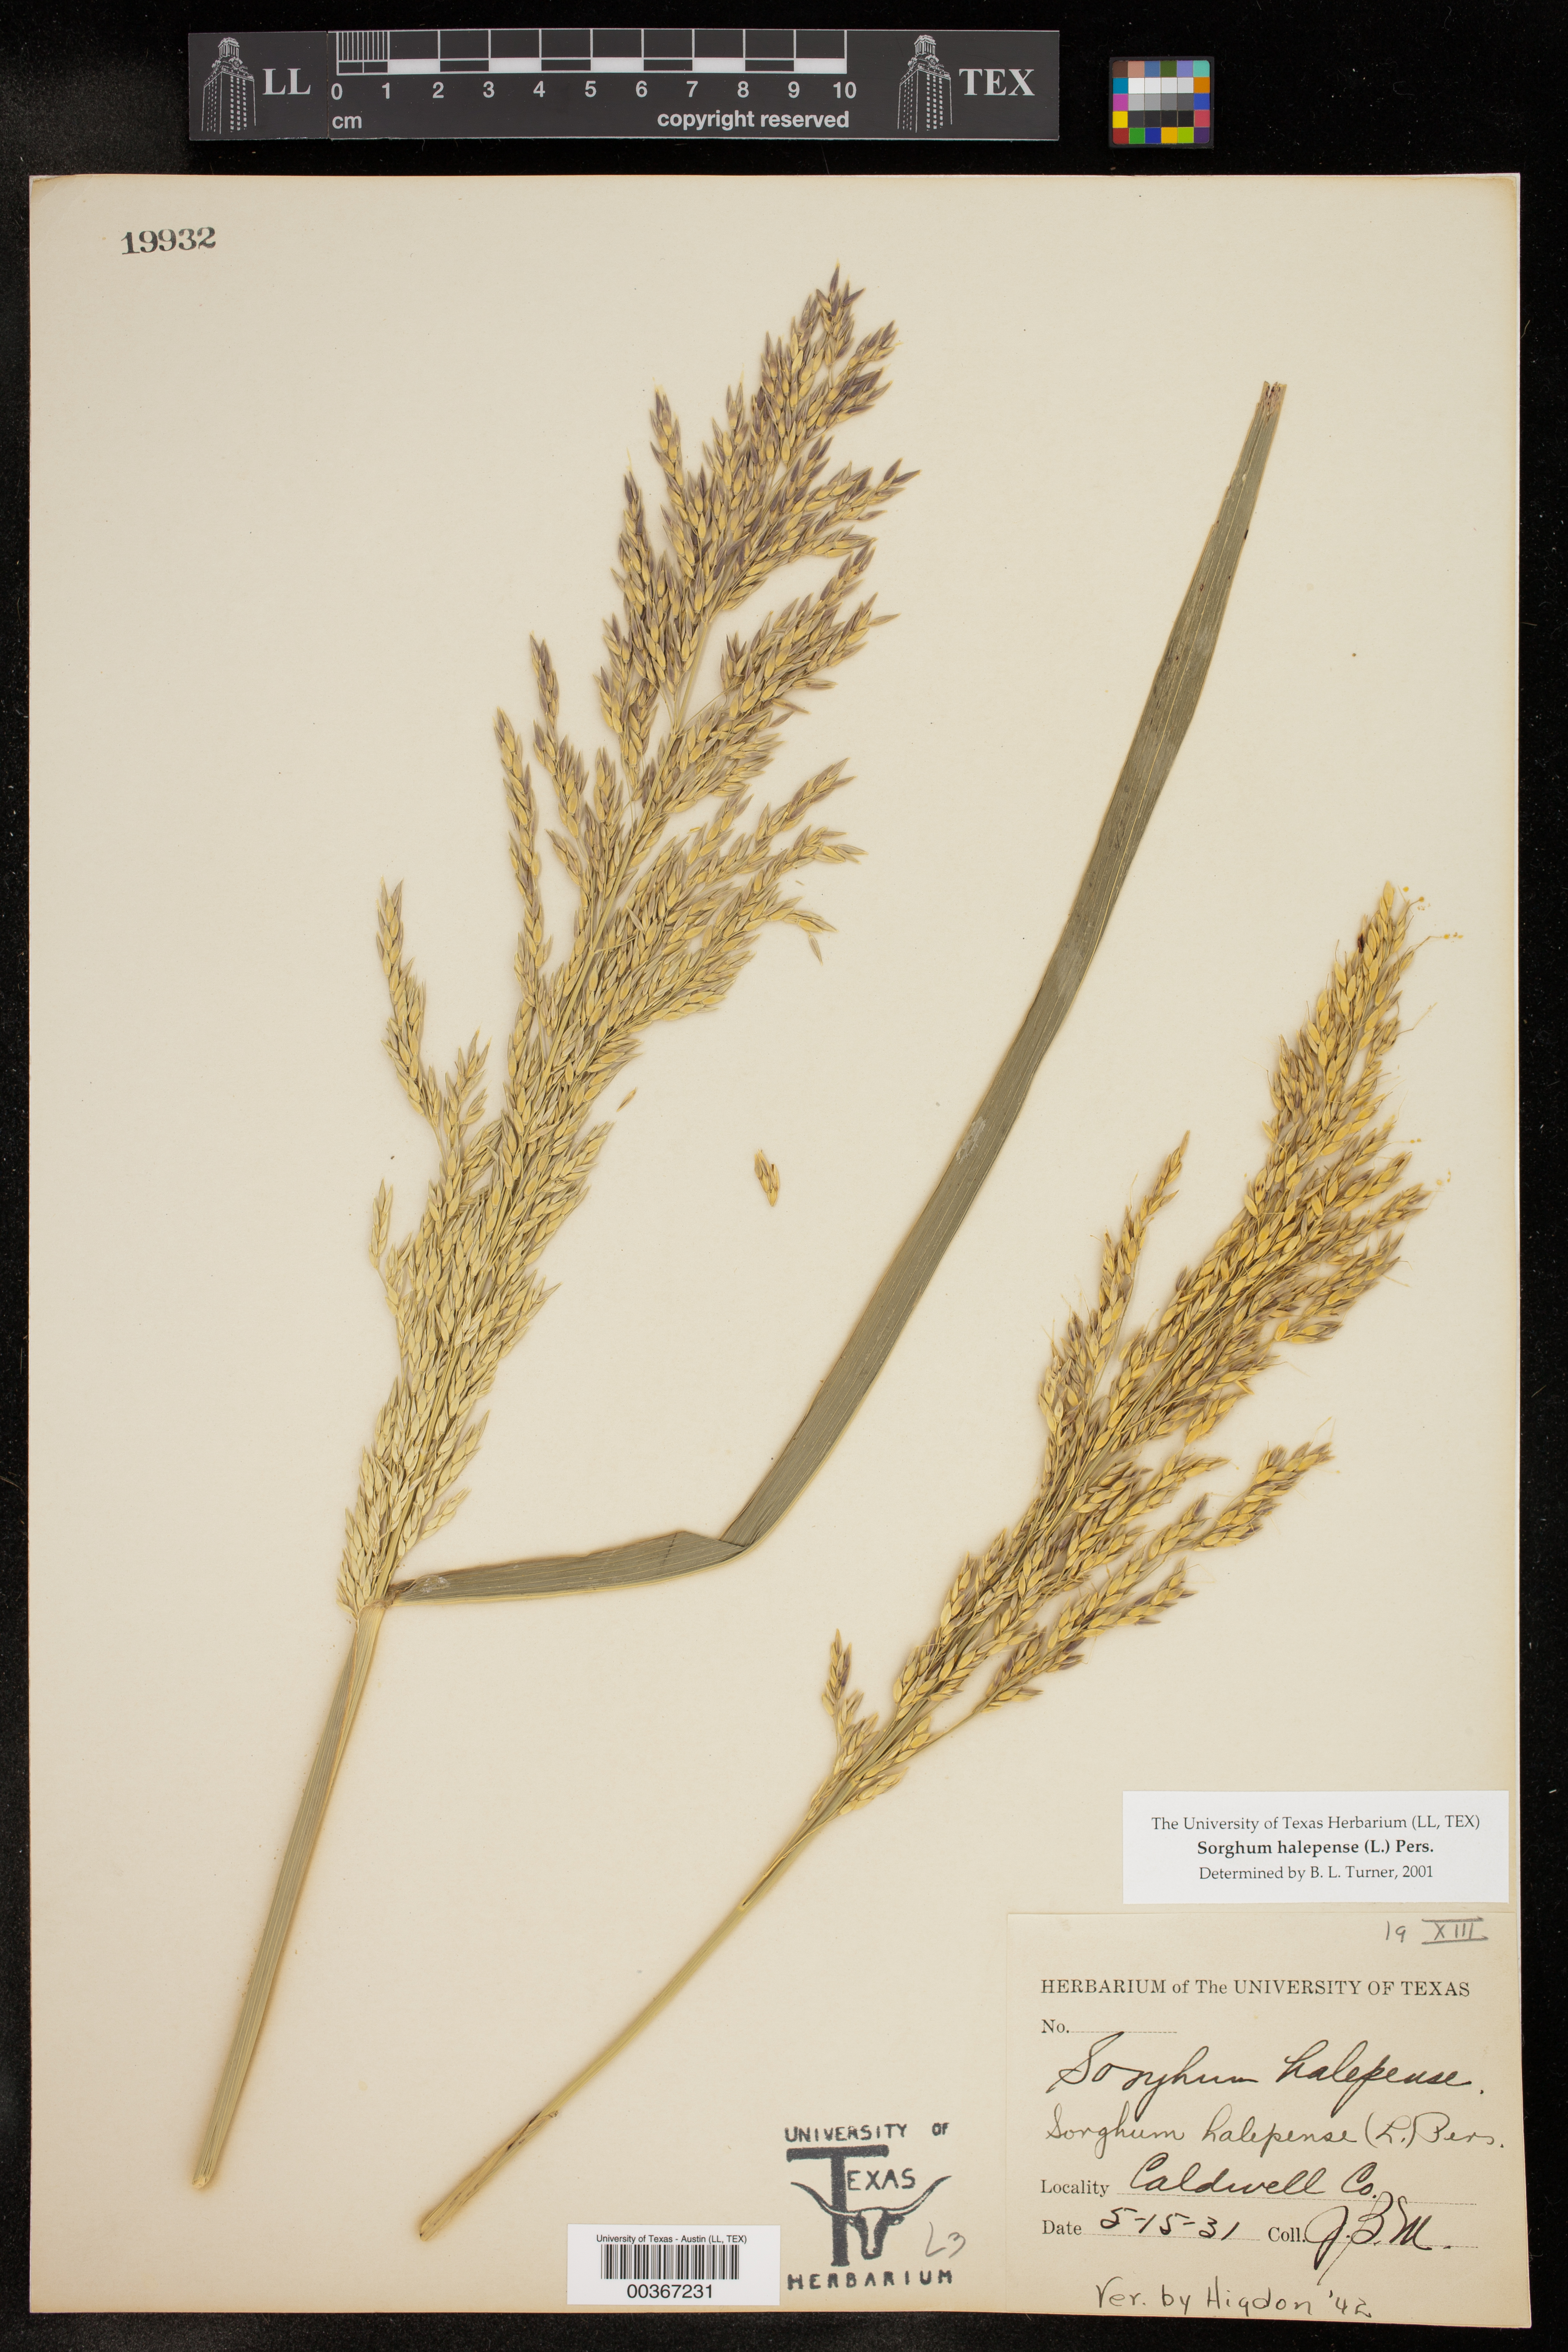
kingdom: Plantae
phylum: Tracheophyta
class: Liliopsida
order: Poales
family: Poaceae
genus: Sorghum
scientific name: Sorghum halepense
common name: Johnson-grass
